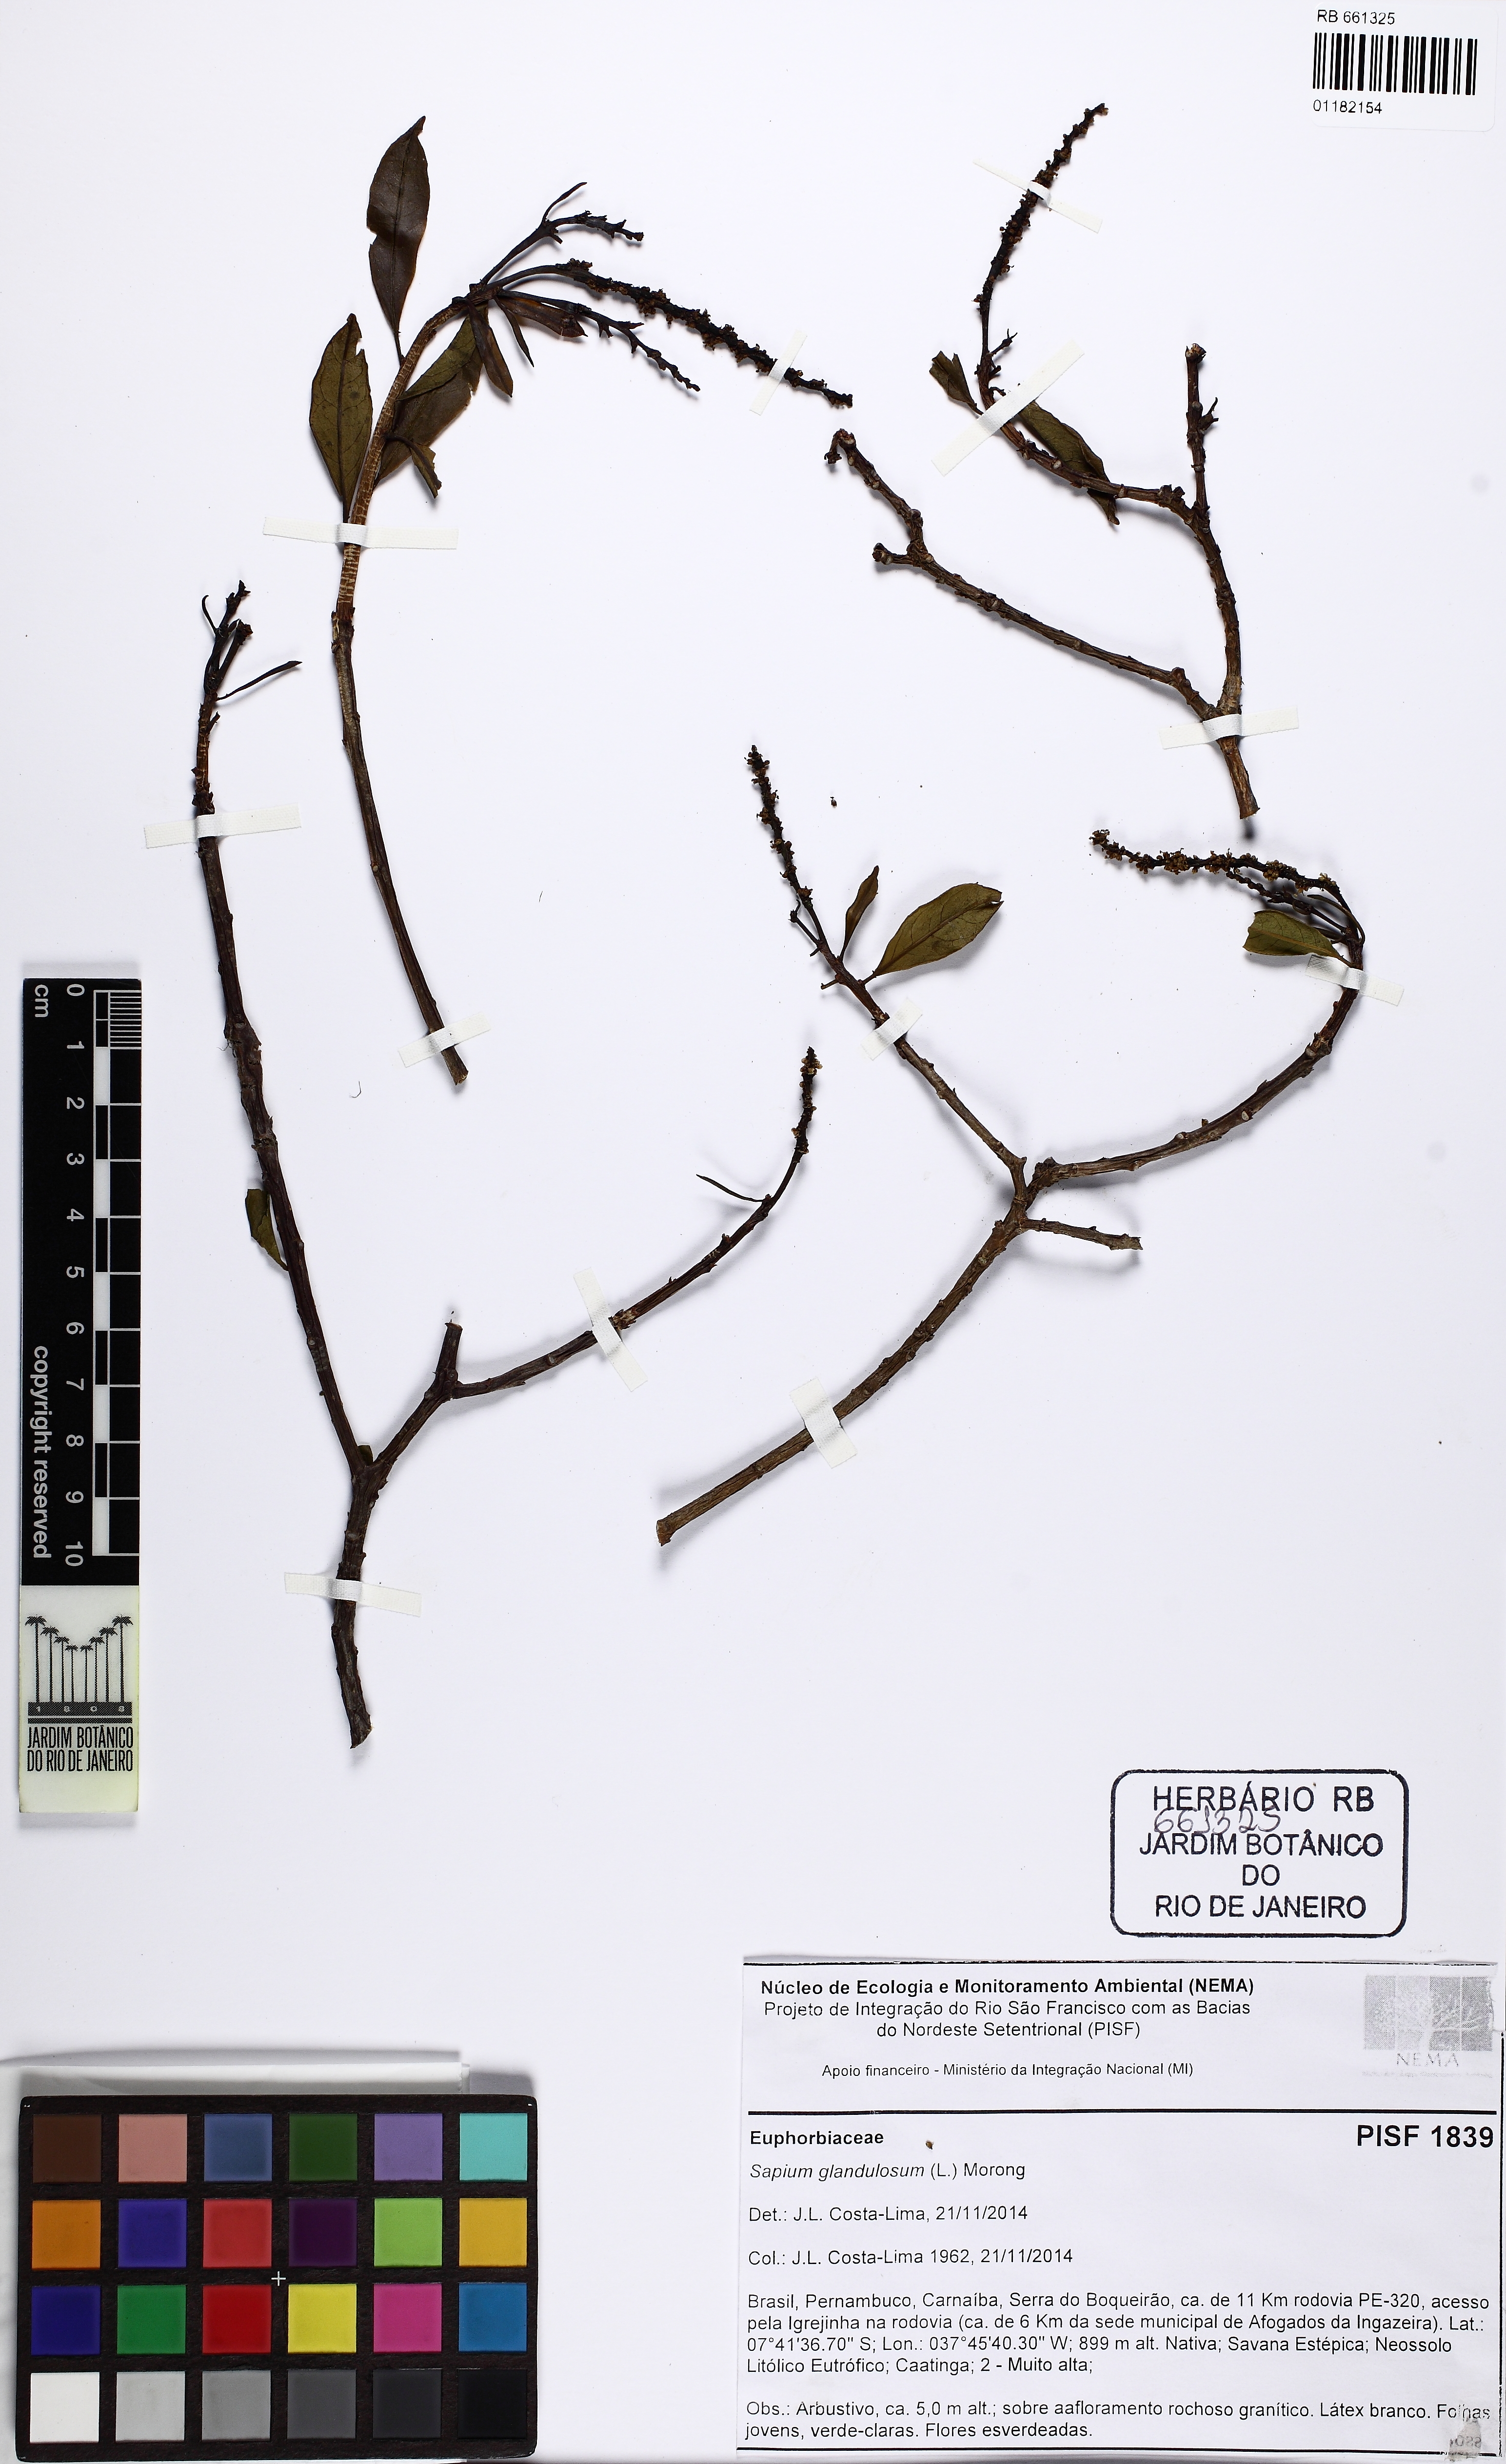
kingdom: Plantae
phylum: Tracheophyta
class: Magnoliopsida
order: Malpighiales
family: Euphorbiaceae
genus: Sapium
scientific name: Sapium glandulosum
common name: Milktree
